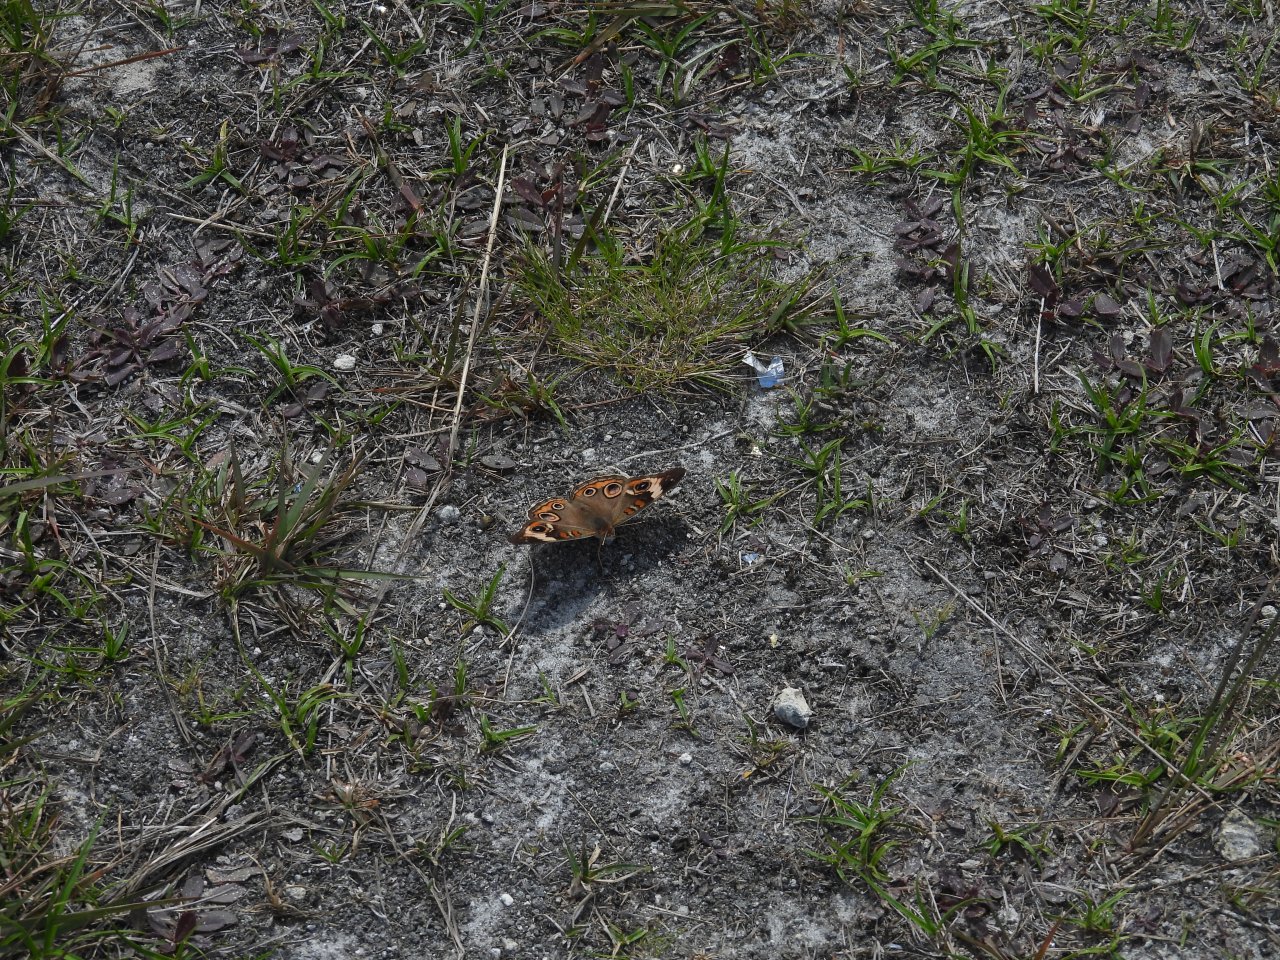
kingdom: Animalia
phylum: Arthropoda
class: Insecta
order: Lepidoptera
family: Nymphalidae
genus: Junonia
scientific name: Junonia coenia
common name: Common Buckeye
